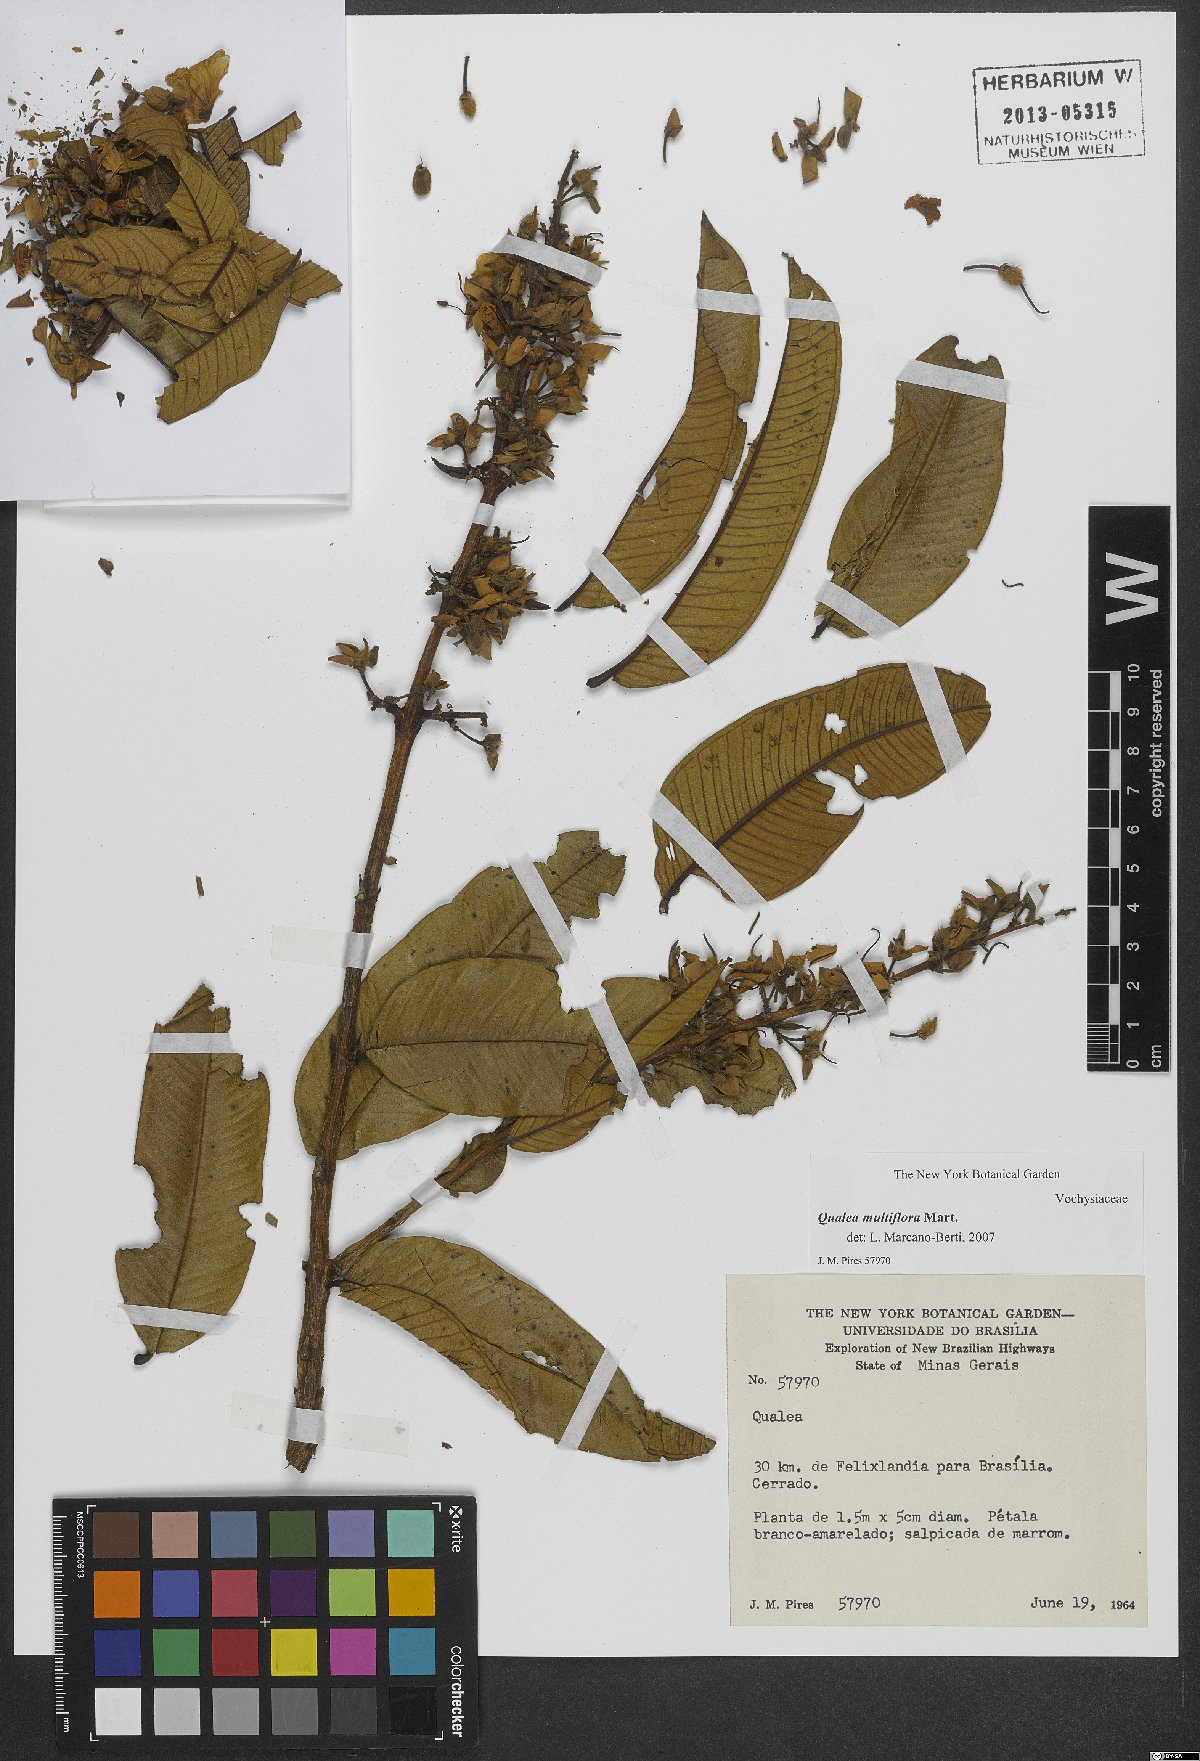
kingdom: Plantae
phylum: Tracheophyta
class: Magnoliopsida
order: Myrtales
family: Vochysiaceae
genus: Qualea
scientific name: Qualea multiflora
